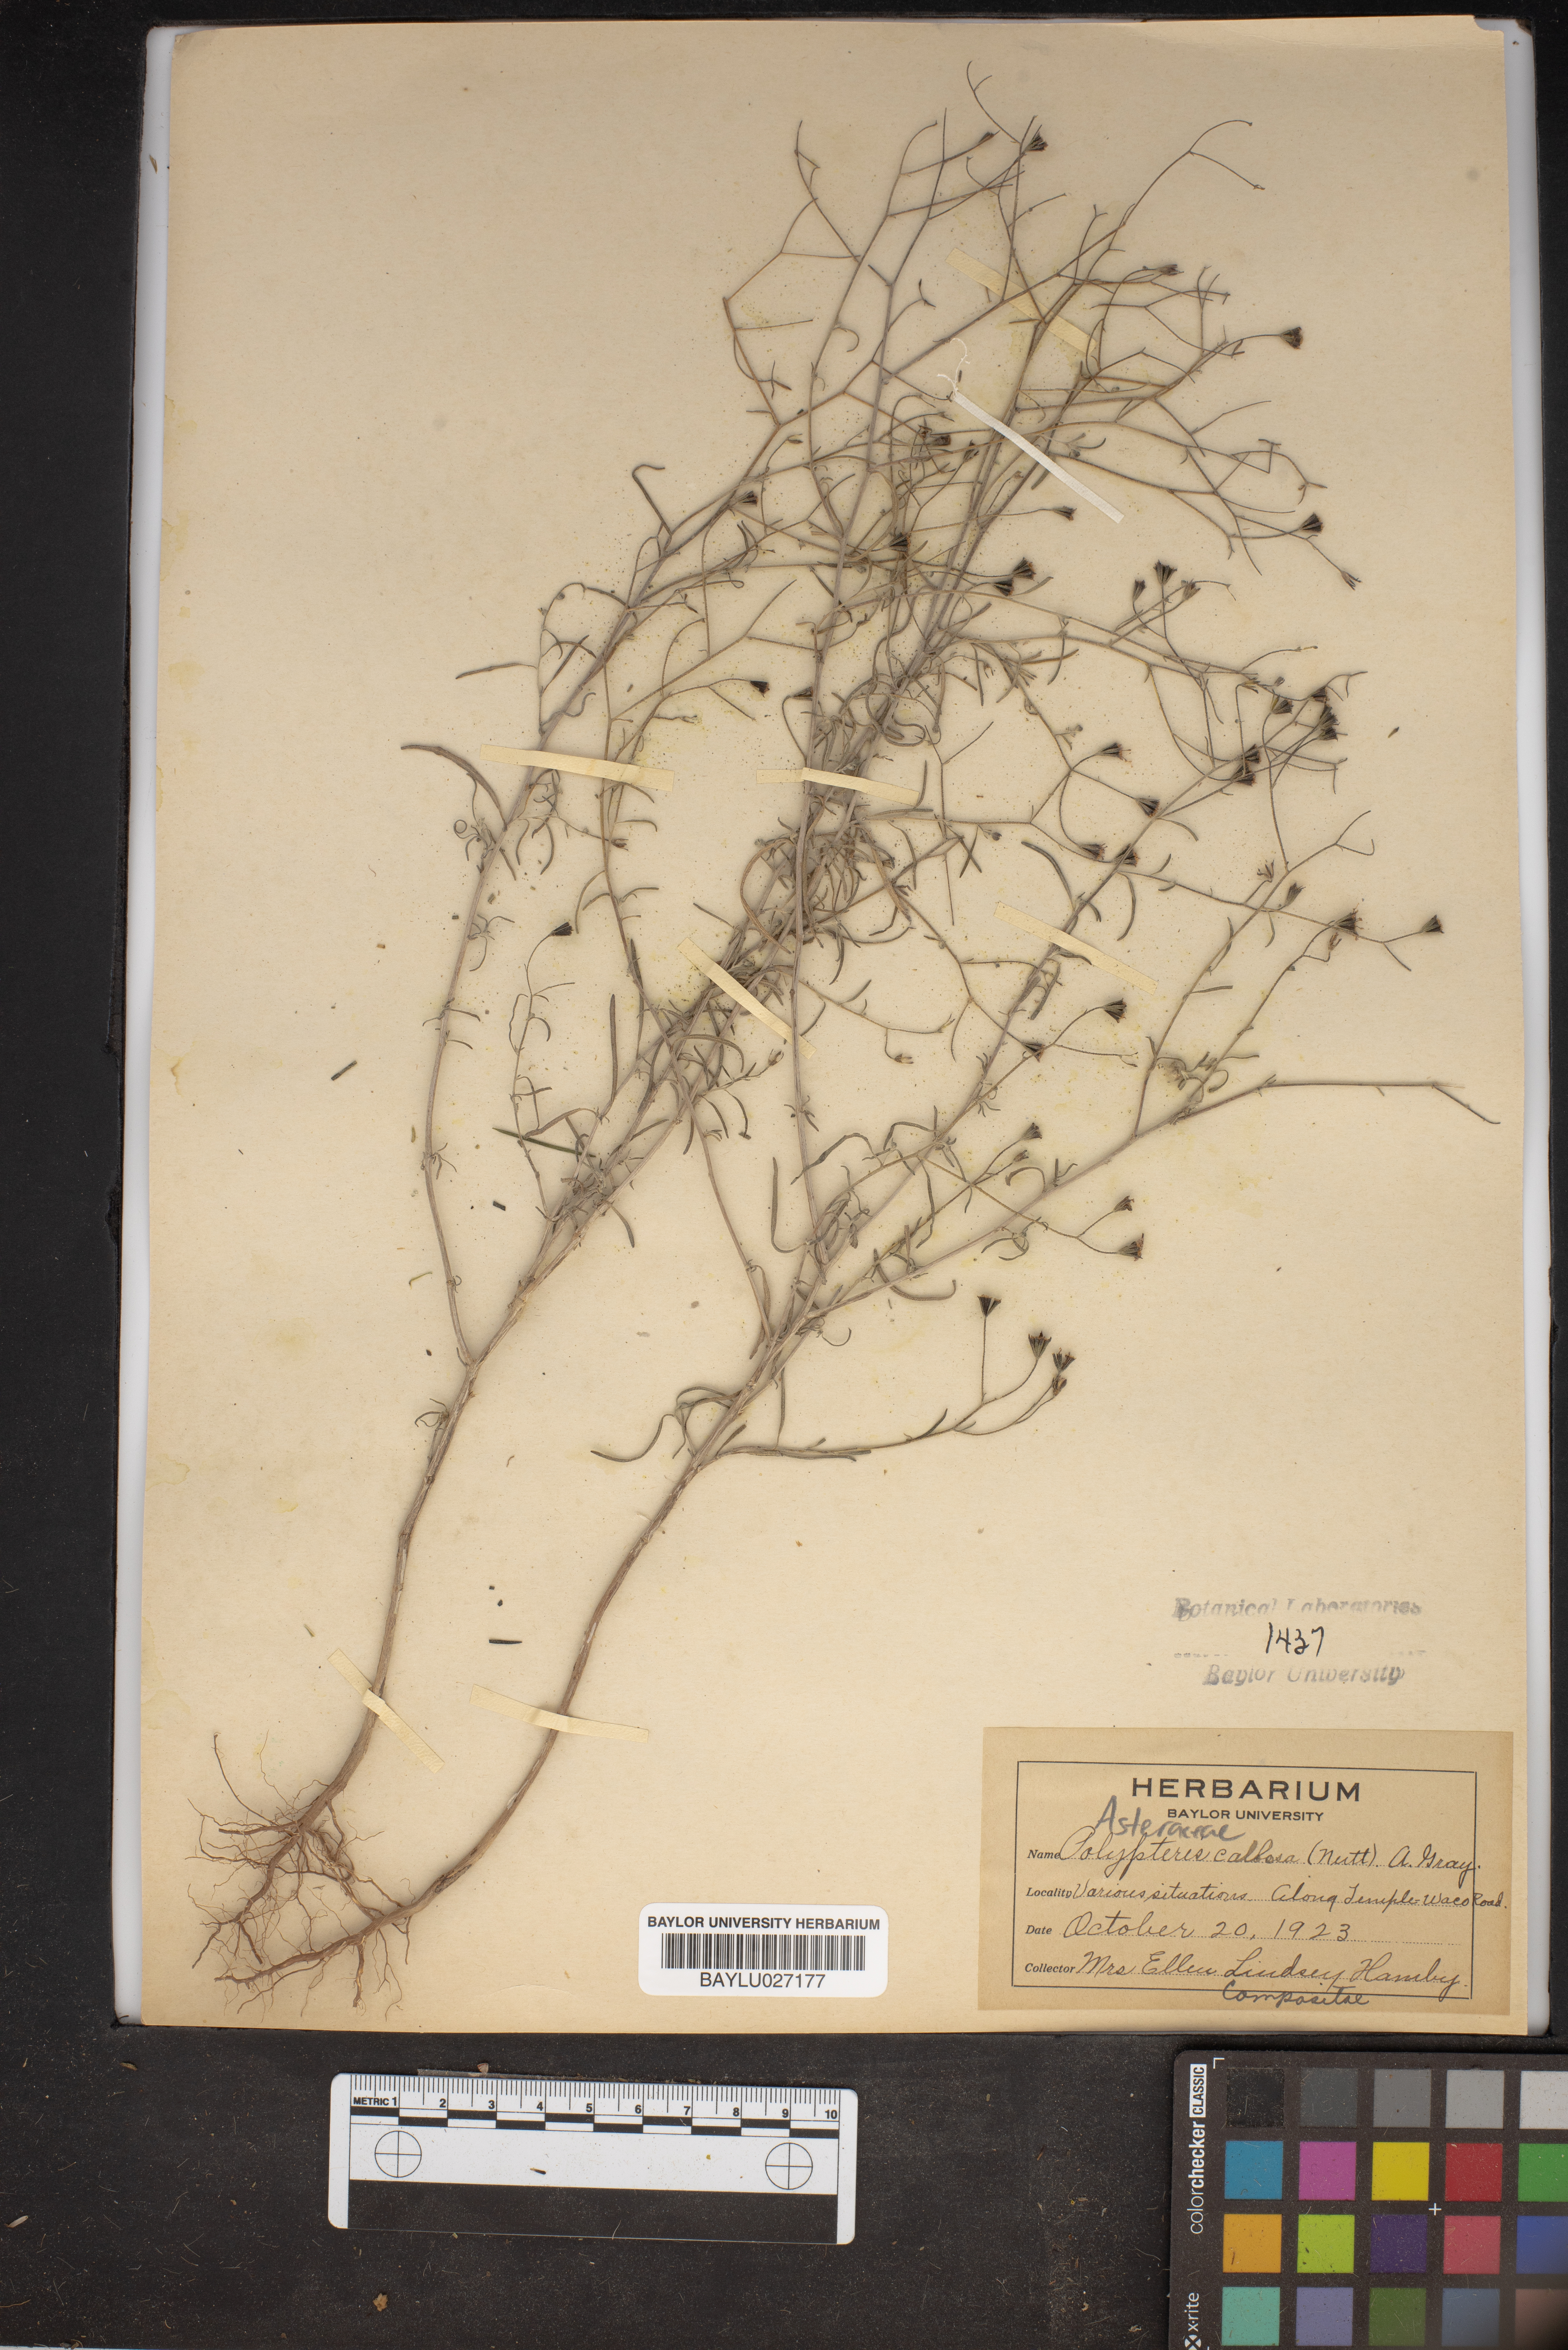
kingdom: Plantae
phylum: Tracheophyta
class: Magnoliopsida
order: Asterales
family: Asteraceae
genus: Palafoxia
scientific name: Palafoxia callosa
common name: Small palafox
